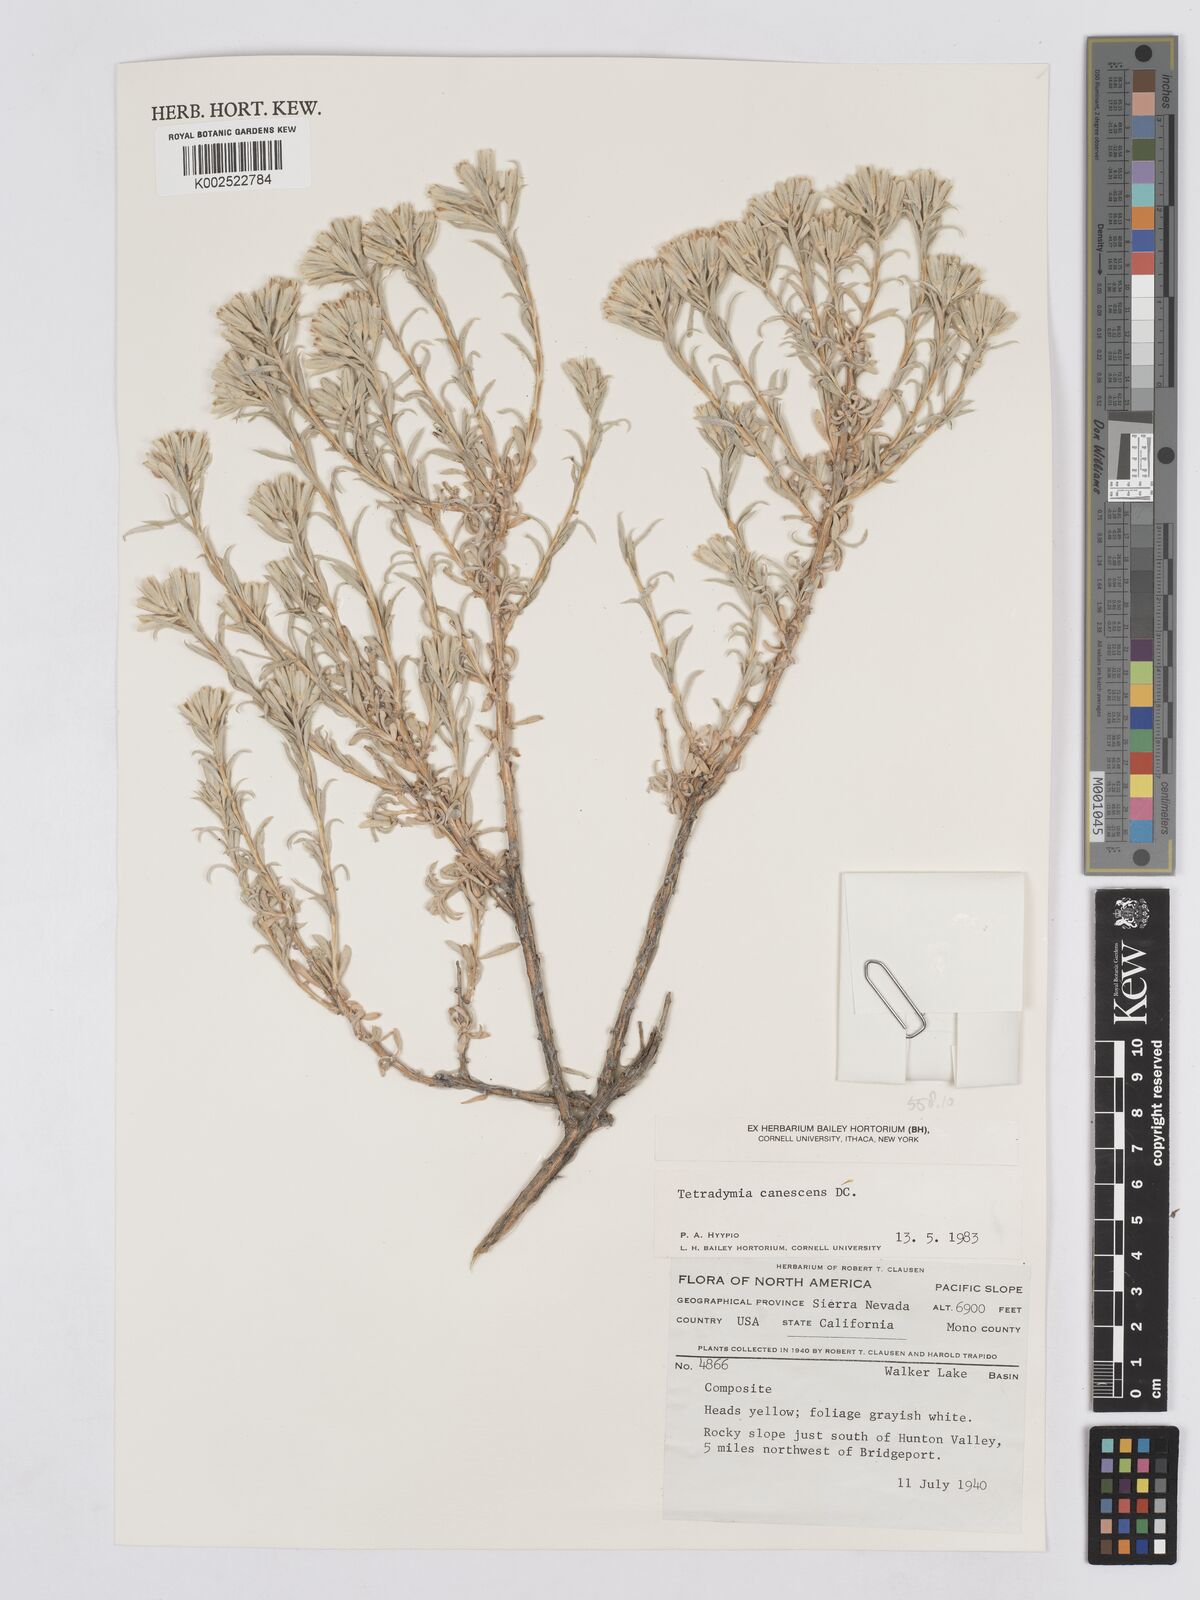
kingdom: Plantae
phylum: Tracheophyta
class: Magnoliopsida
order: Asterales
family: Asteraceae
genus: Tetradymia
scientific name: Tetradymia canescens
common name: Spineless horsebrush
